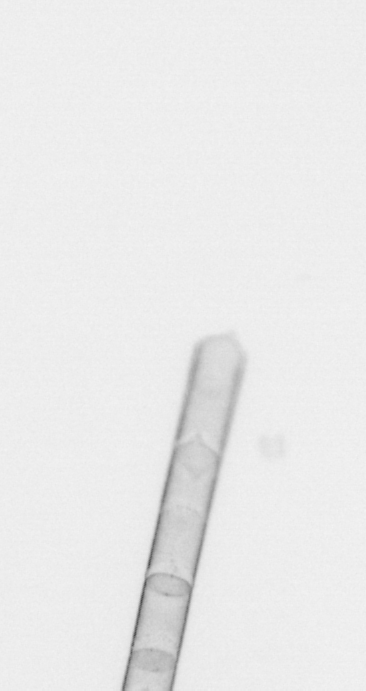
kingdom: Chromista
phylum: Ochrophyta
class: Bacillariophyceae
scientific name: Bacillariophyceae
